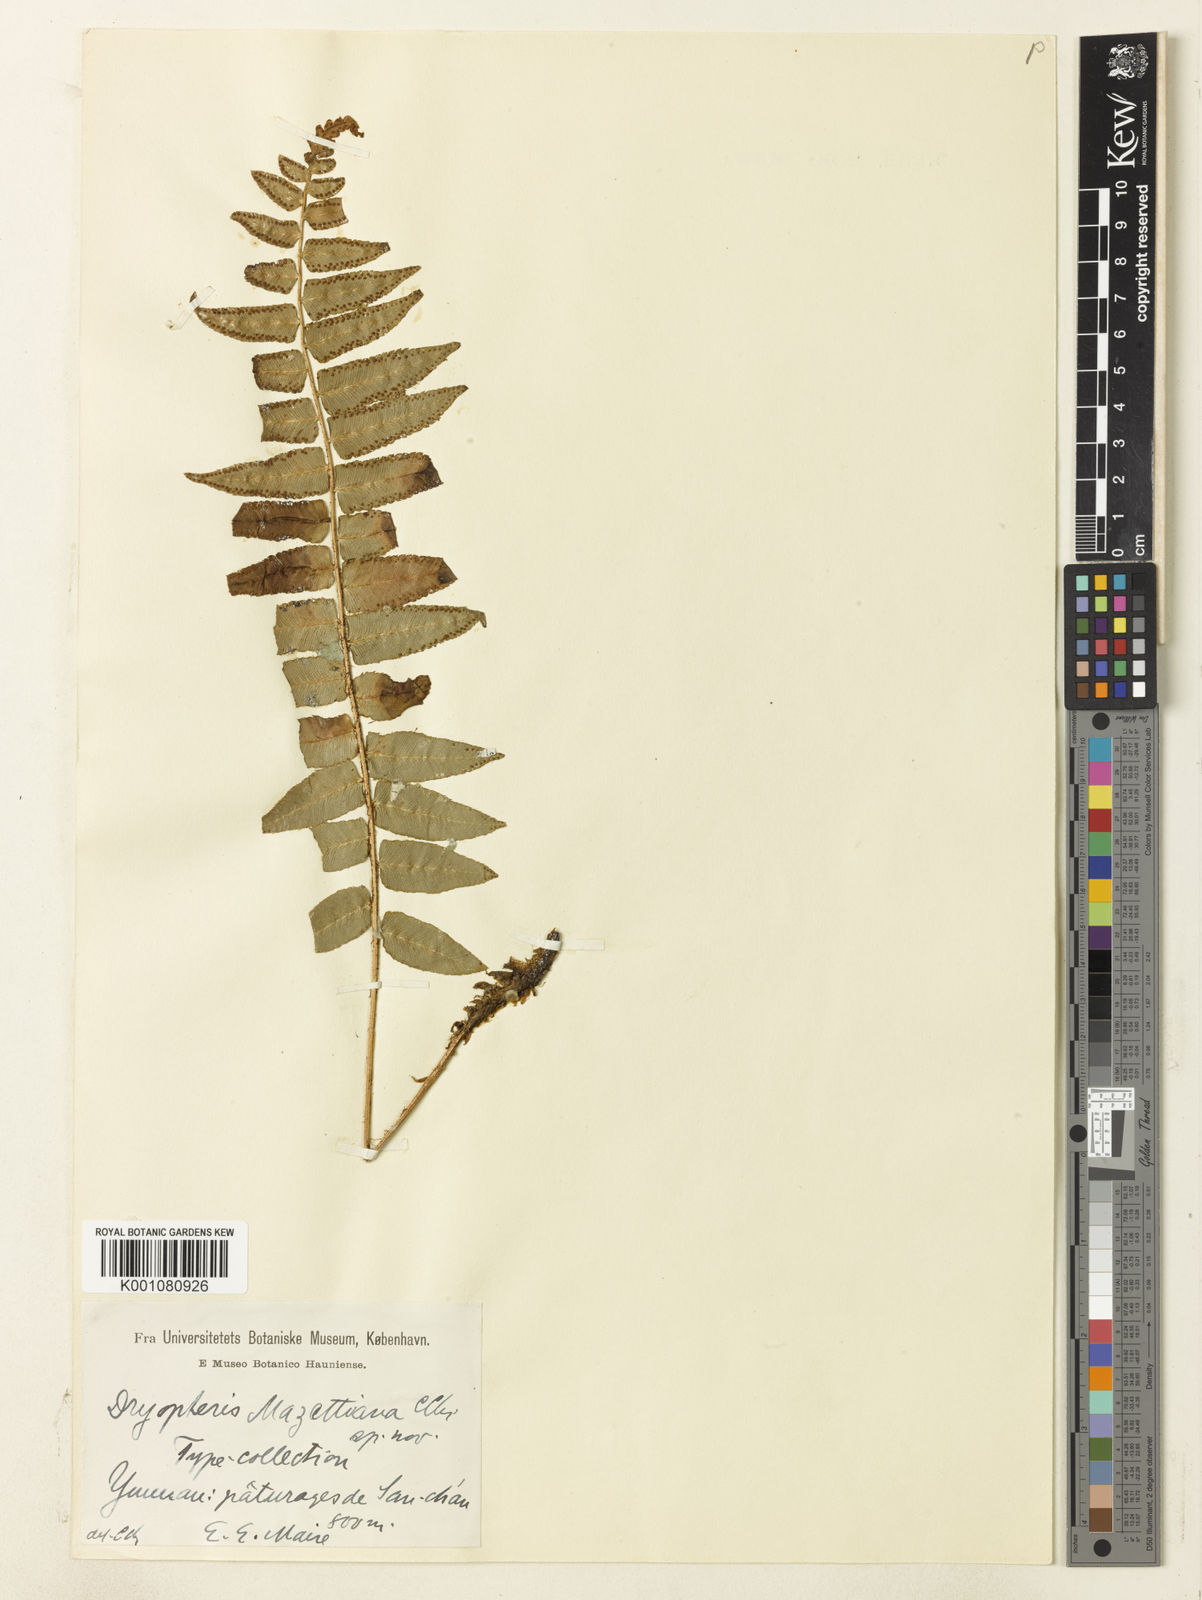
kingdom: Plantae
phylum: Tracheophyta
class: Polypodiopsida
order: Polypodiales
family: Dryopteridaceae
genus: Dryopteris
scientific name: Dryopteris handeliana
